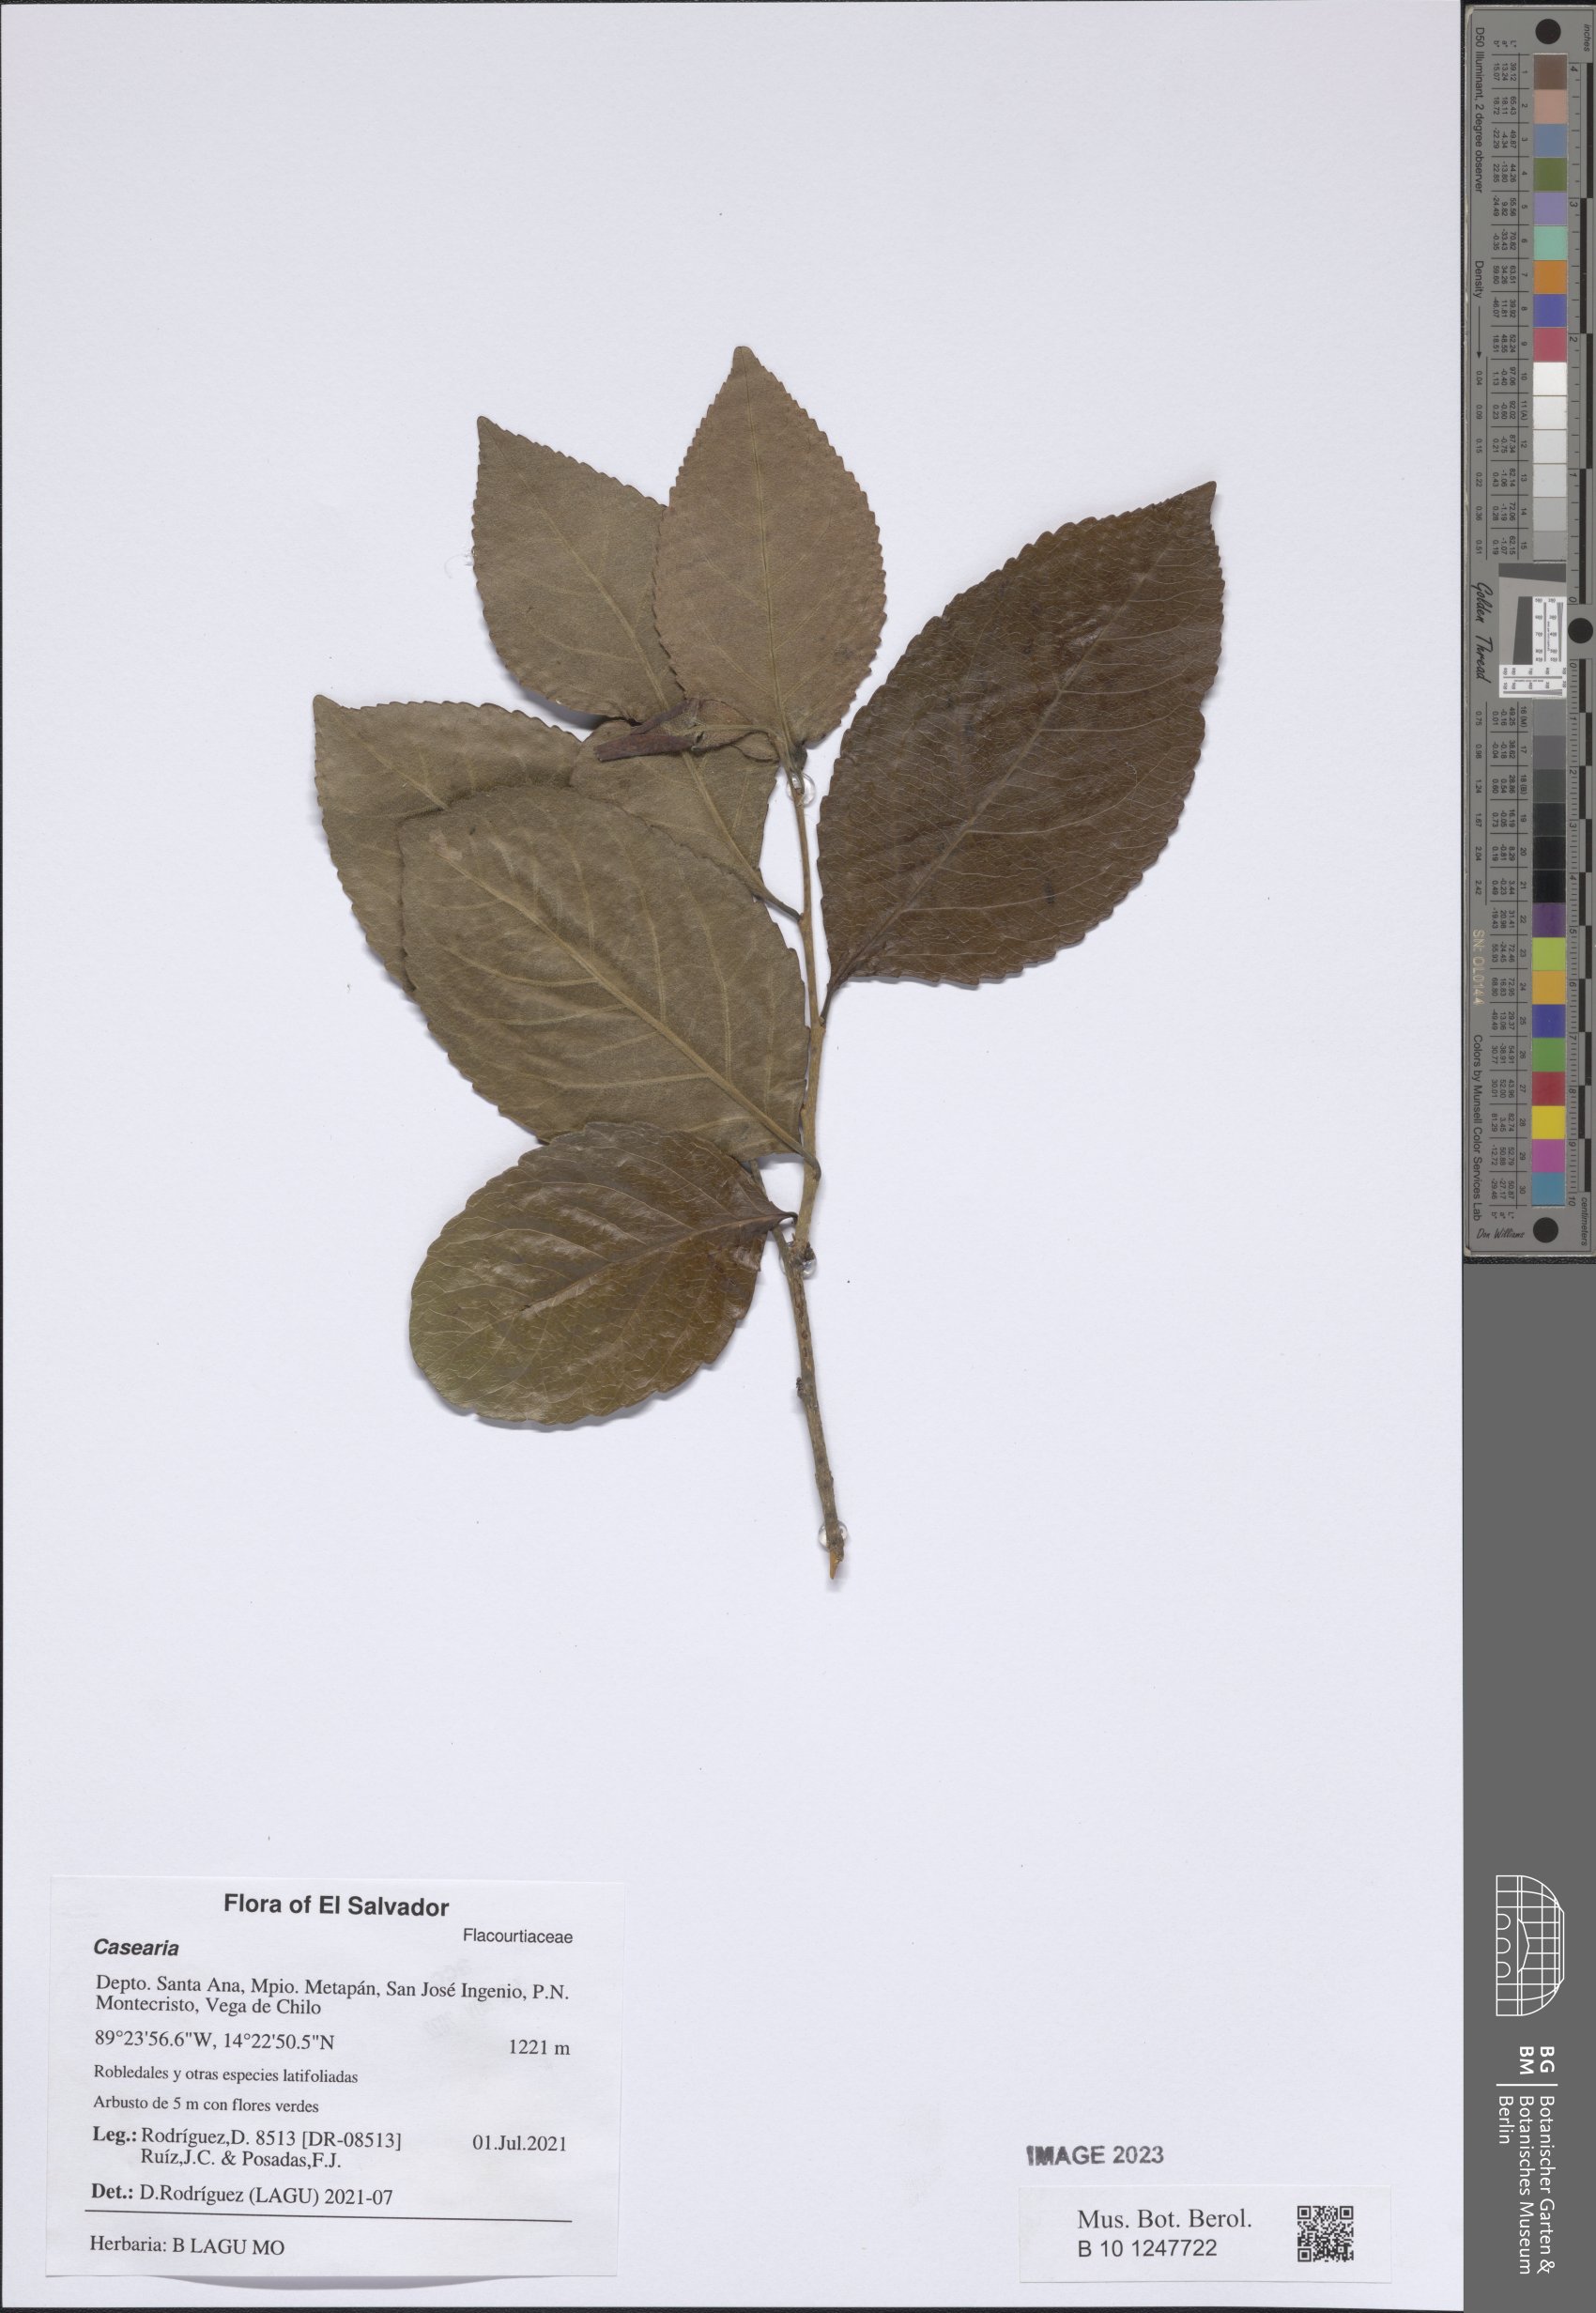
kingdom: Plantae
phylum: Tracheophyta
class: Magnoliopsida
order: Malpighiales
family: Salicaceae
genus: Casearia
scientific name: Casearia
